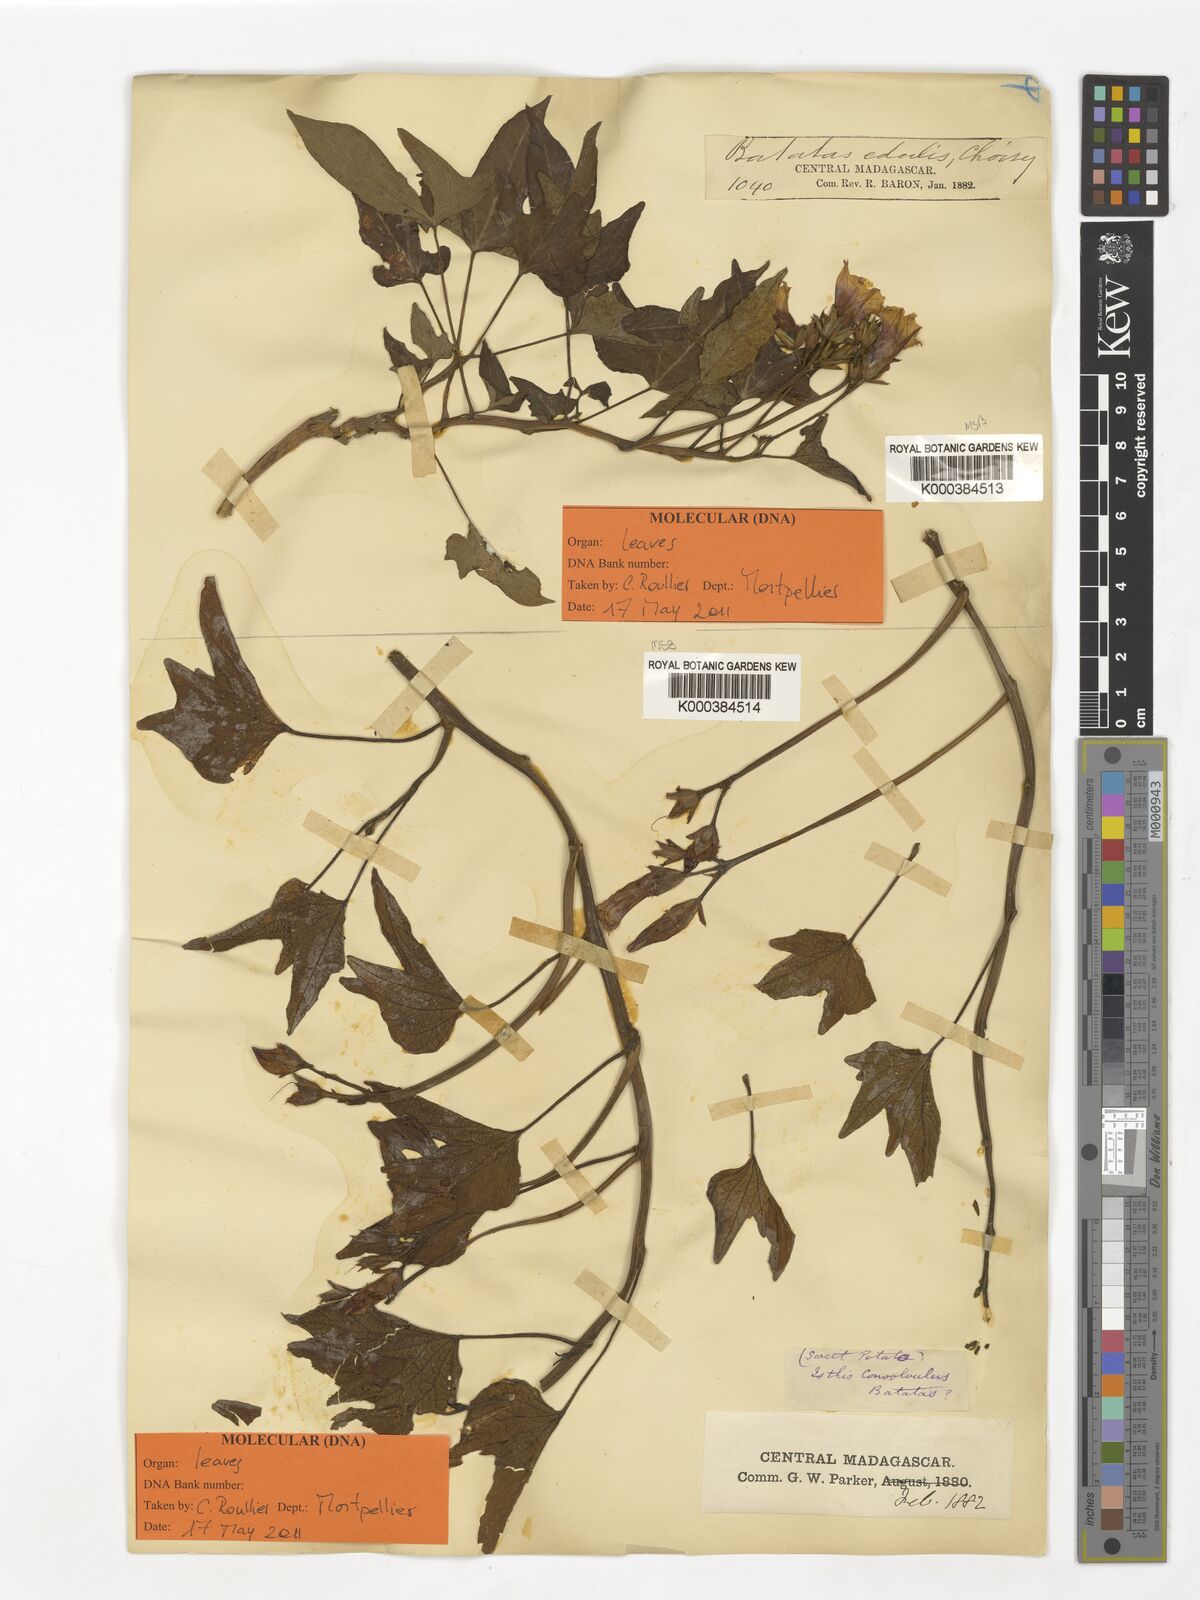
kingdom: Plantae
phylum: Tracheophyta
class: Magnoliopsida
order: Solanales
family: Convolvulaceae
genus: Ipomoea
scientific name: Ipomoea
